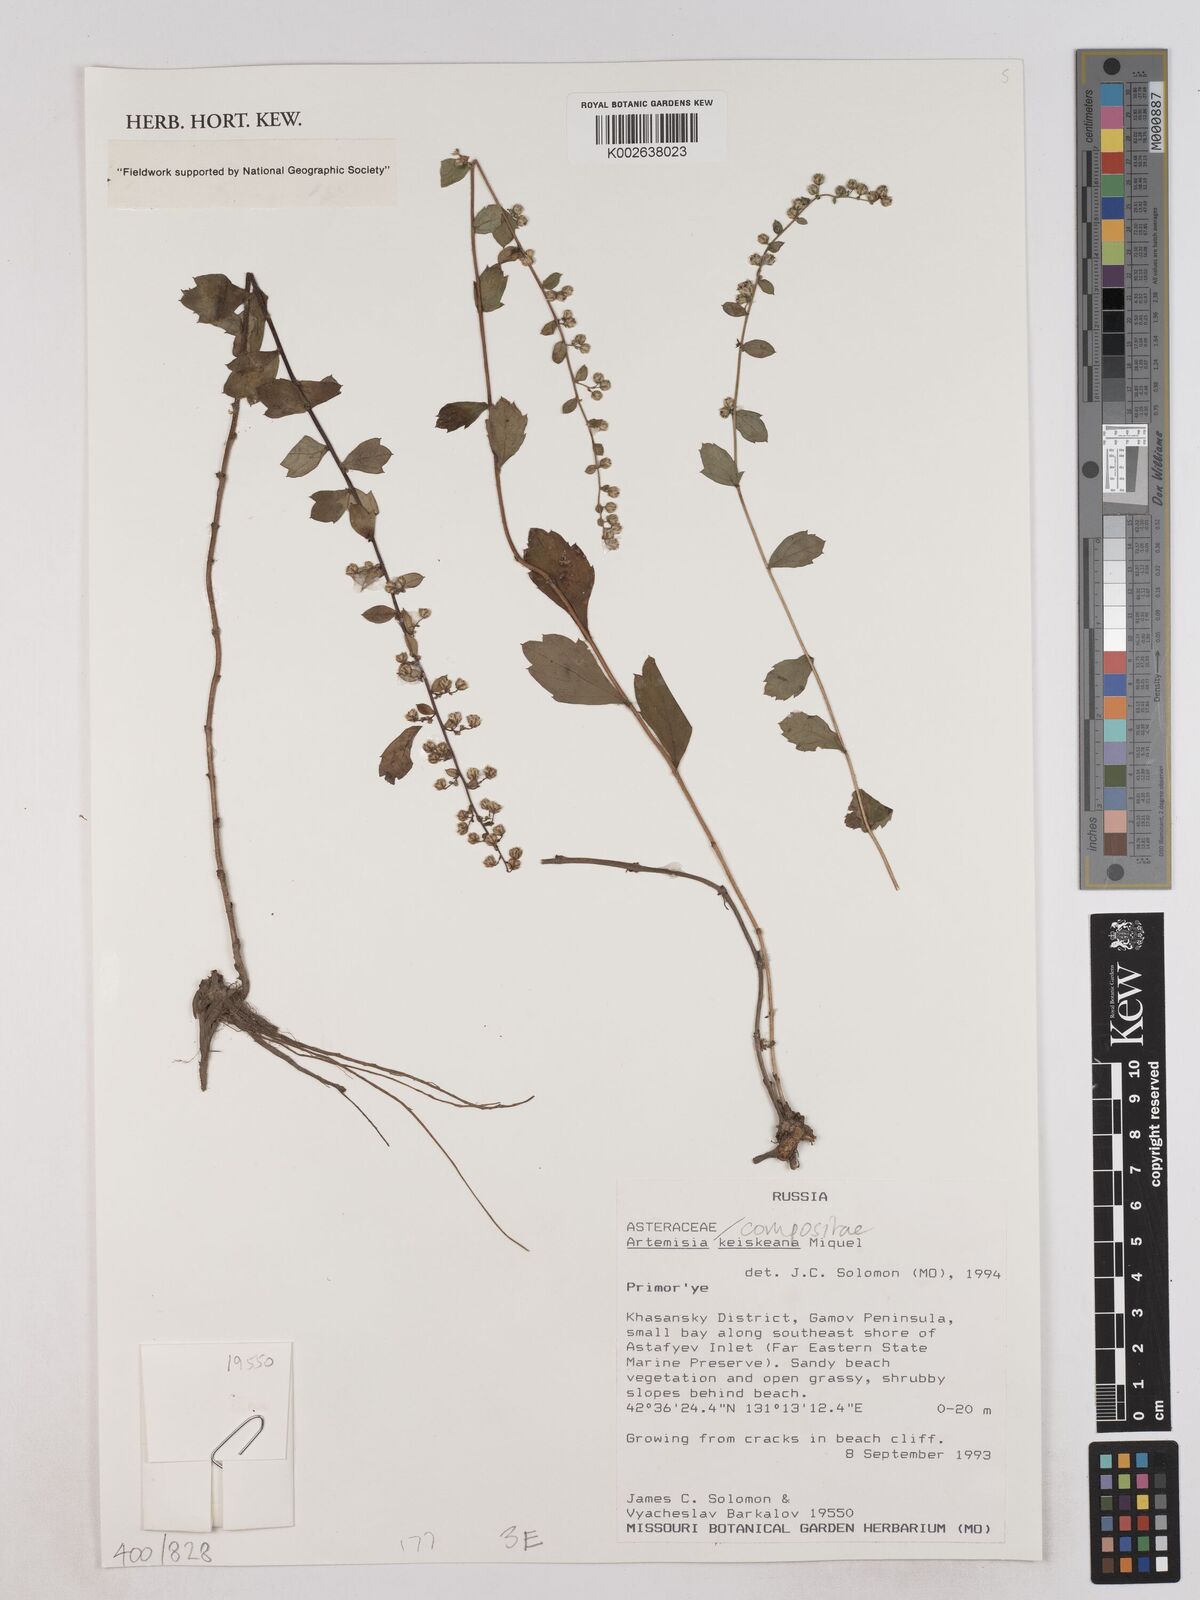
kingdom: Plantae
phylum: Tracheophyta
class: Magnoliopsida
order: Asterales
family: Asteraceae
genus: Artemisia
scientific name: Artemisia keiskeana
